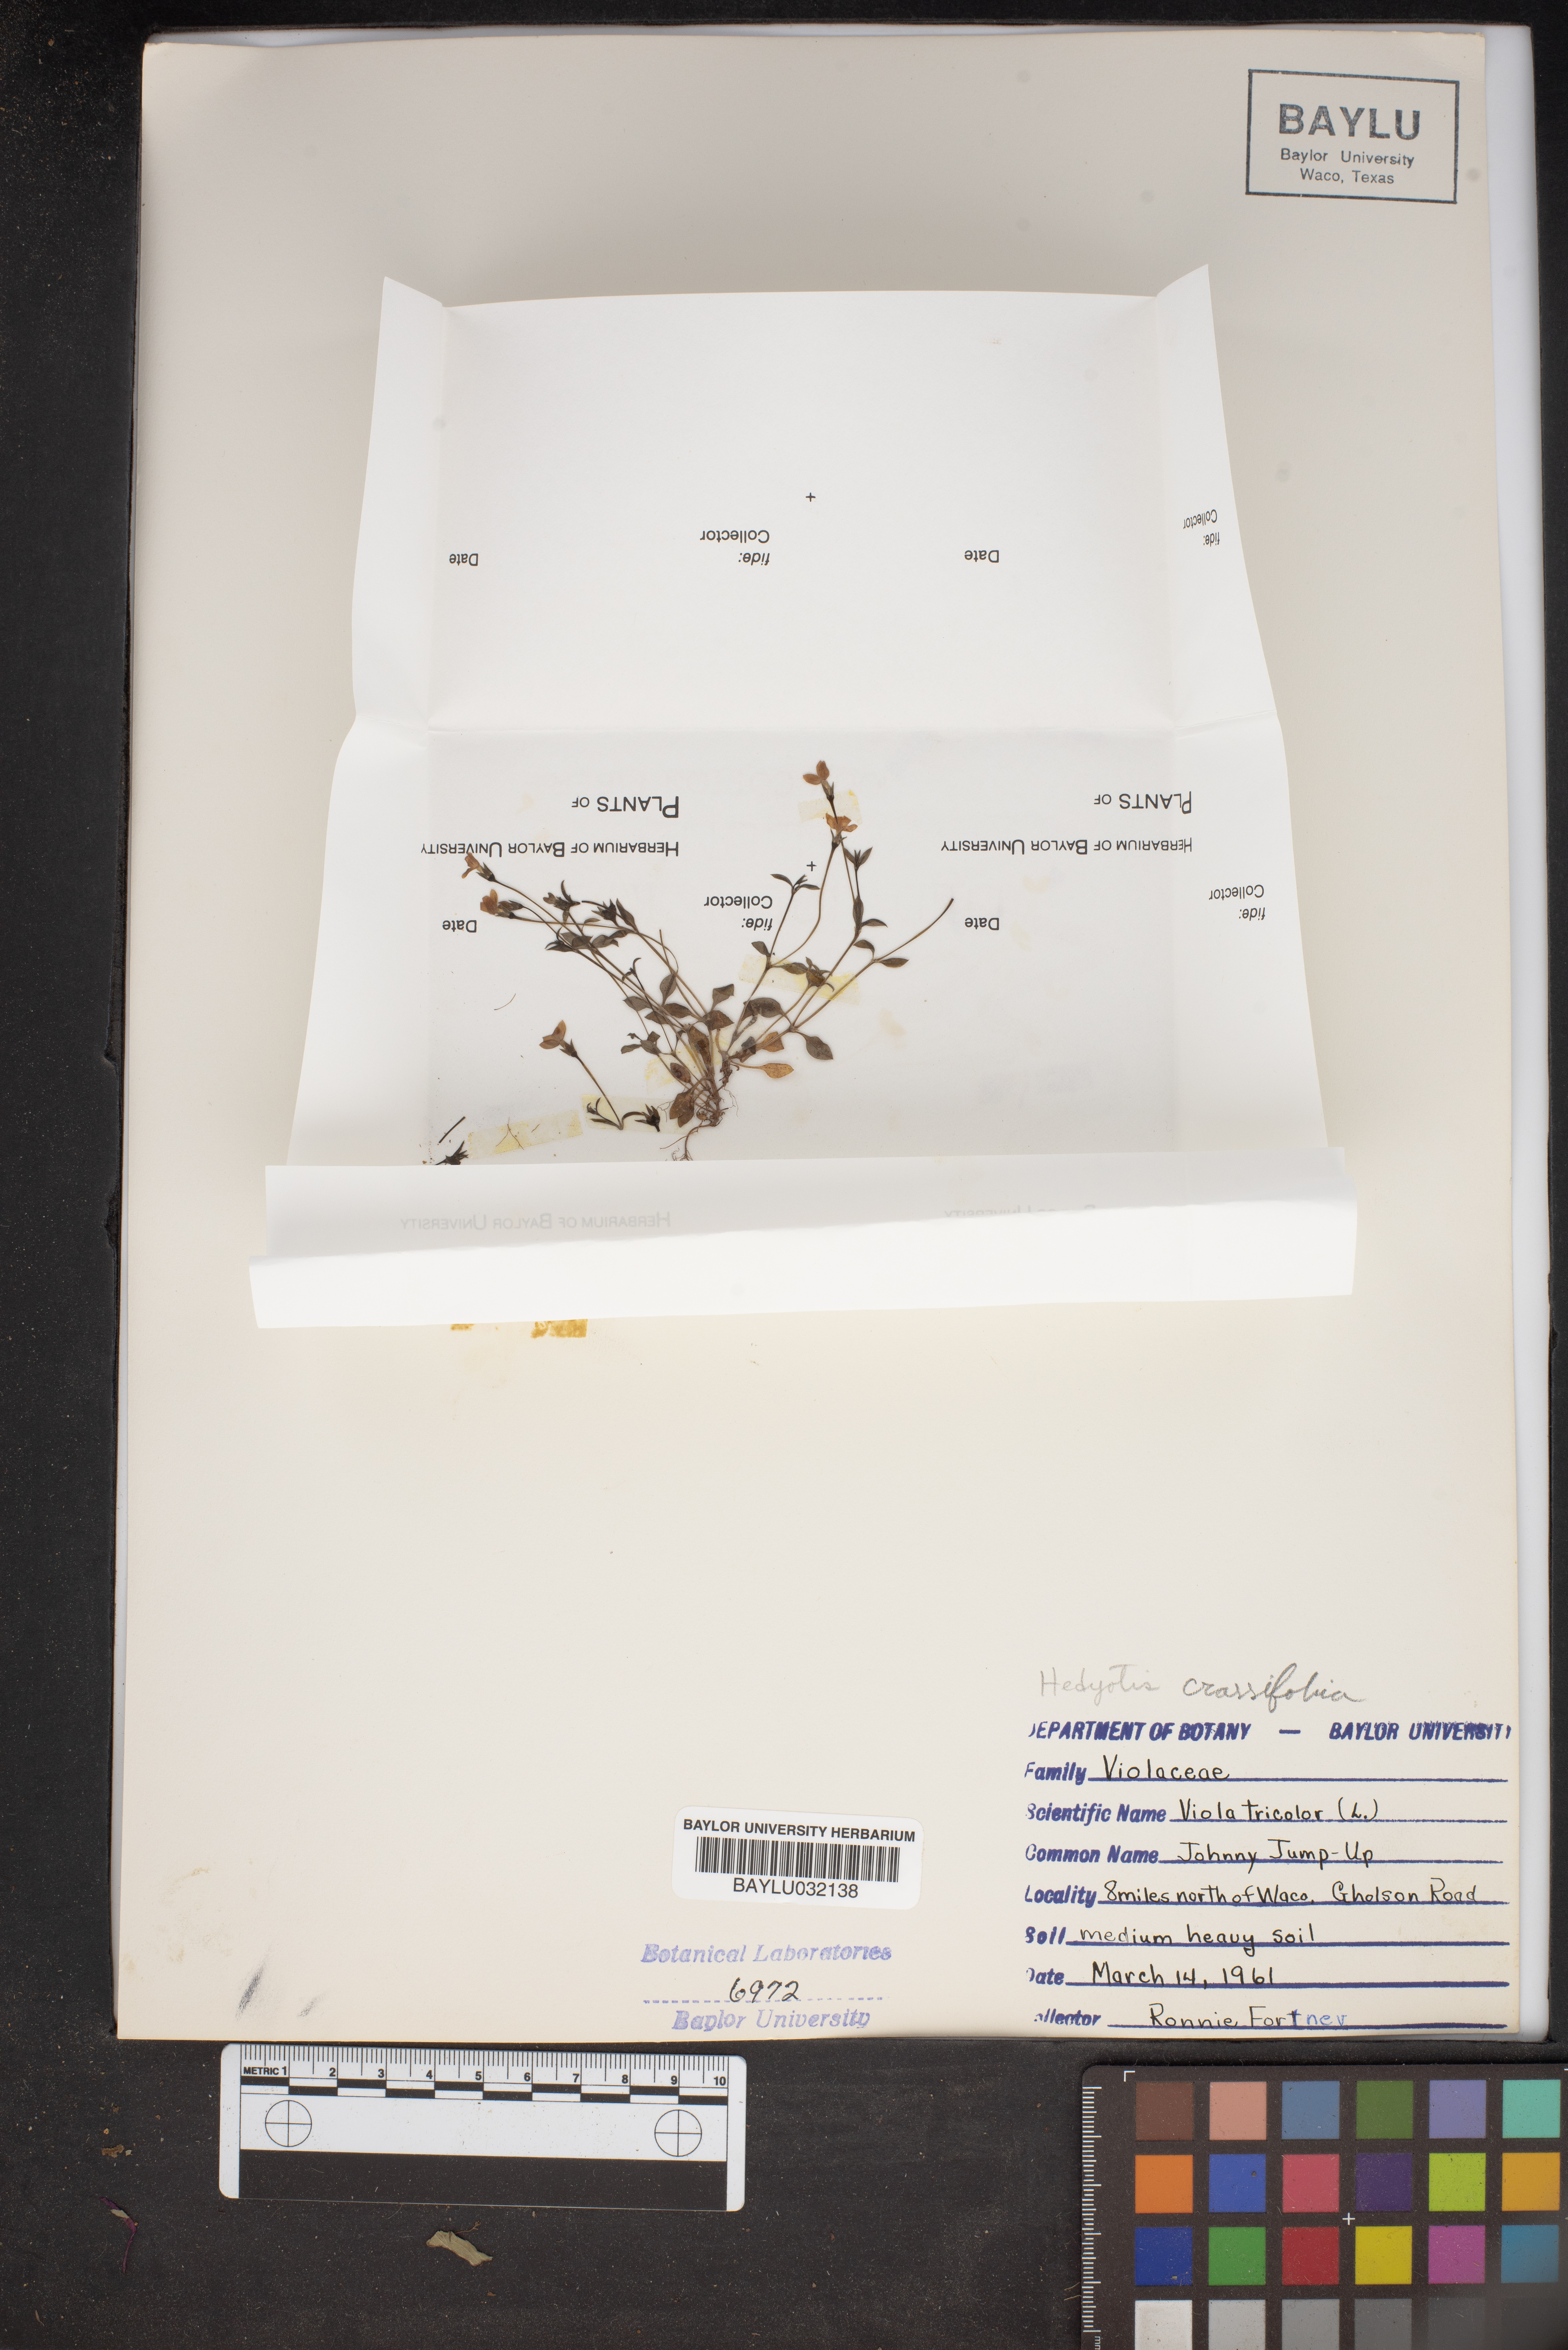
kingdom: Plantae
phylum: Tracheophyta
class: Magnoliopsida
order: Malpighiales
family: Violaceae
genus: Viola
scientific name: Viola tricolor
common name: Pansy
